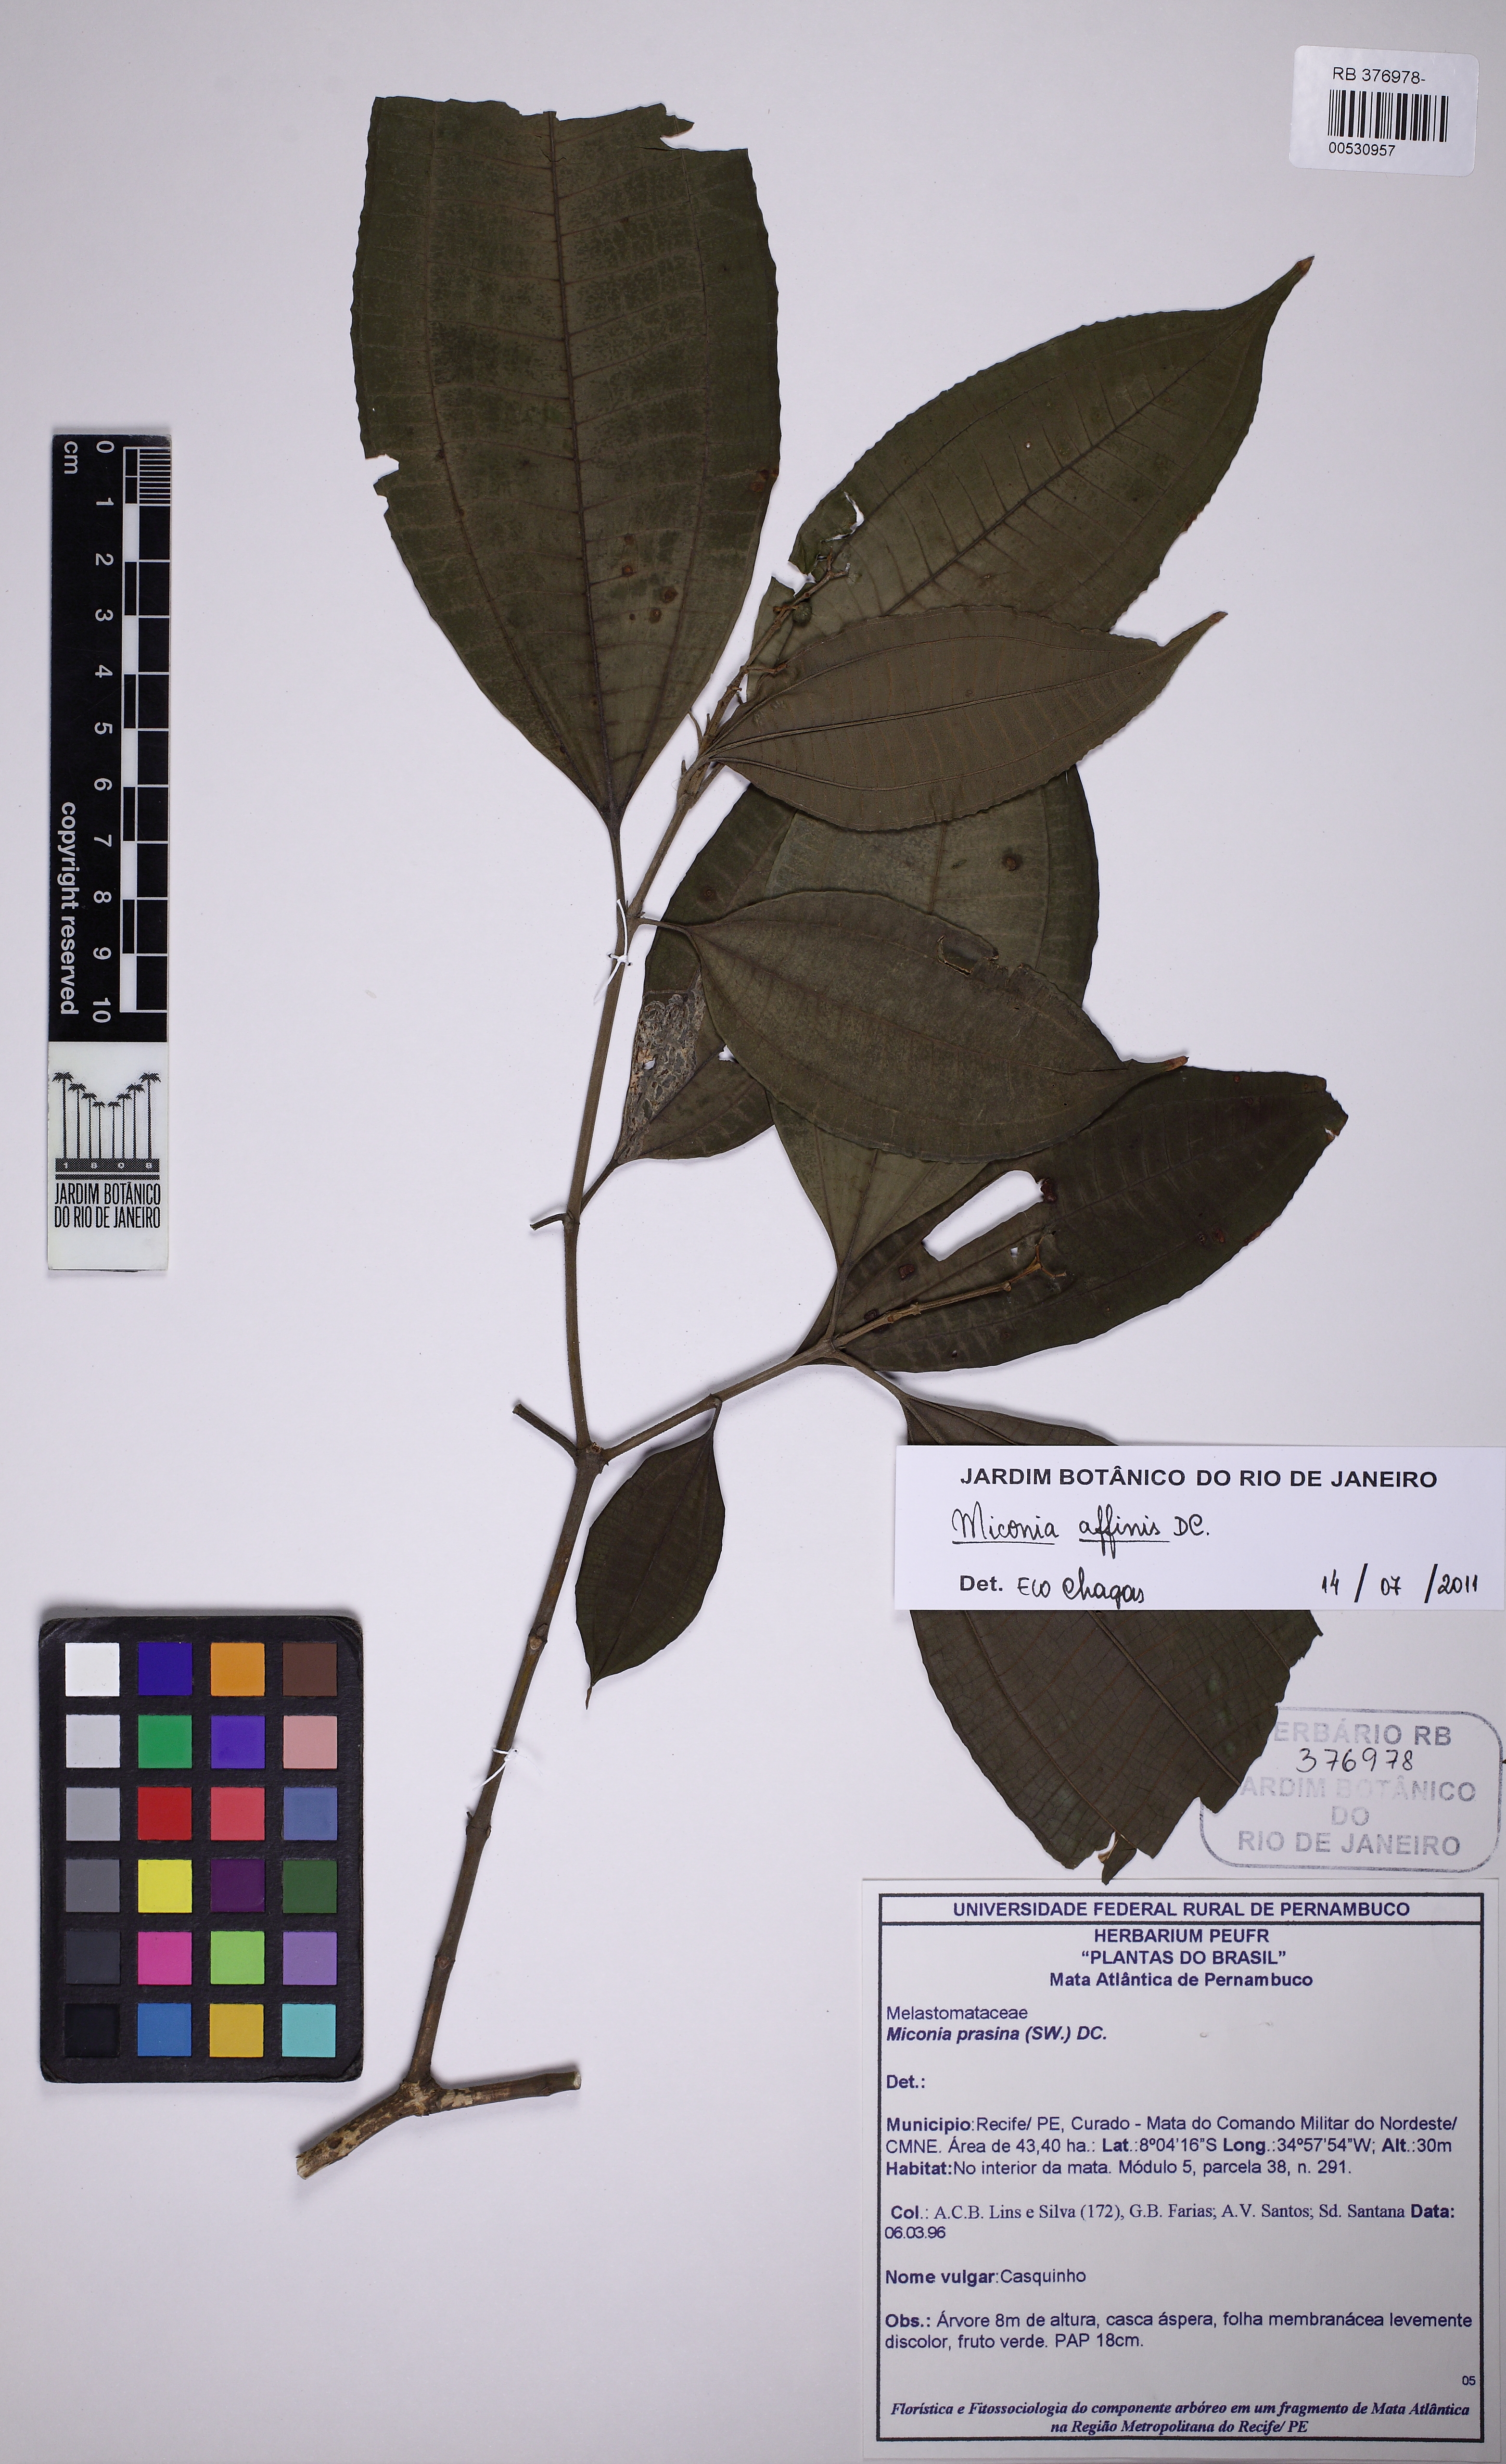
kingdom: Plantae
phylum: Tracheophyta
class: Magnoliopsida
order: Myrtales
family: Melastomataceae
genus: Miconia
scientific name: Miconia affinis
